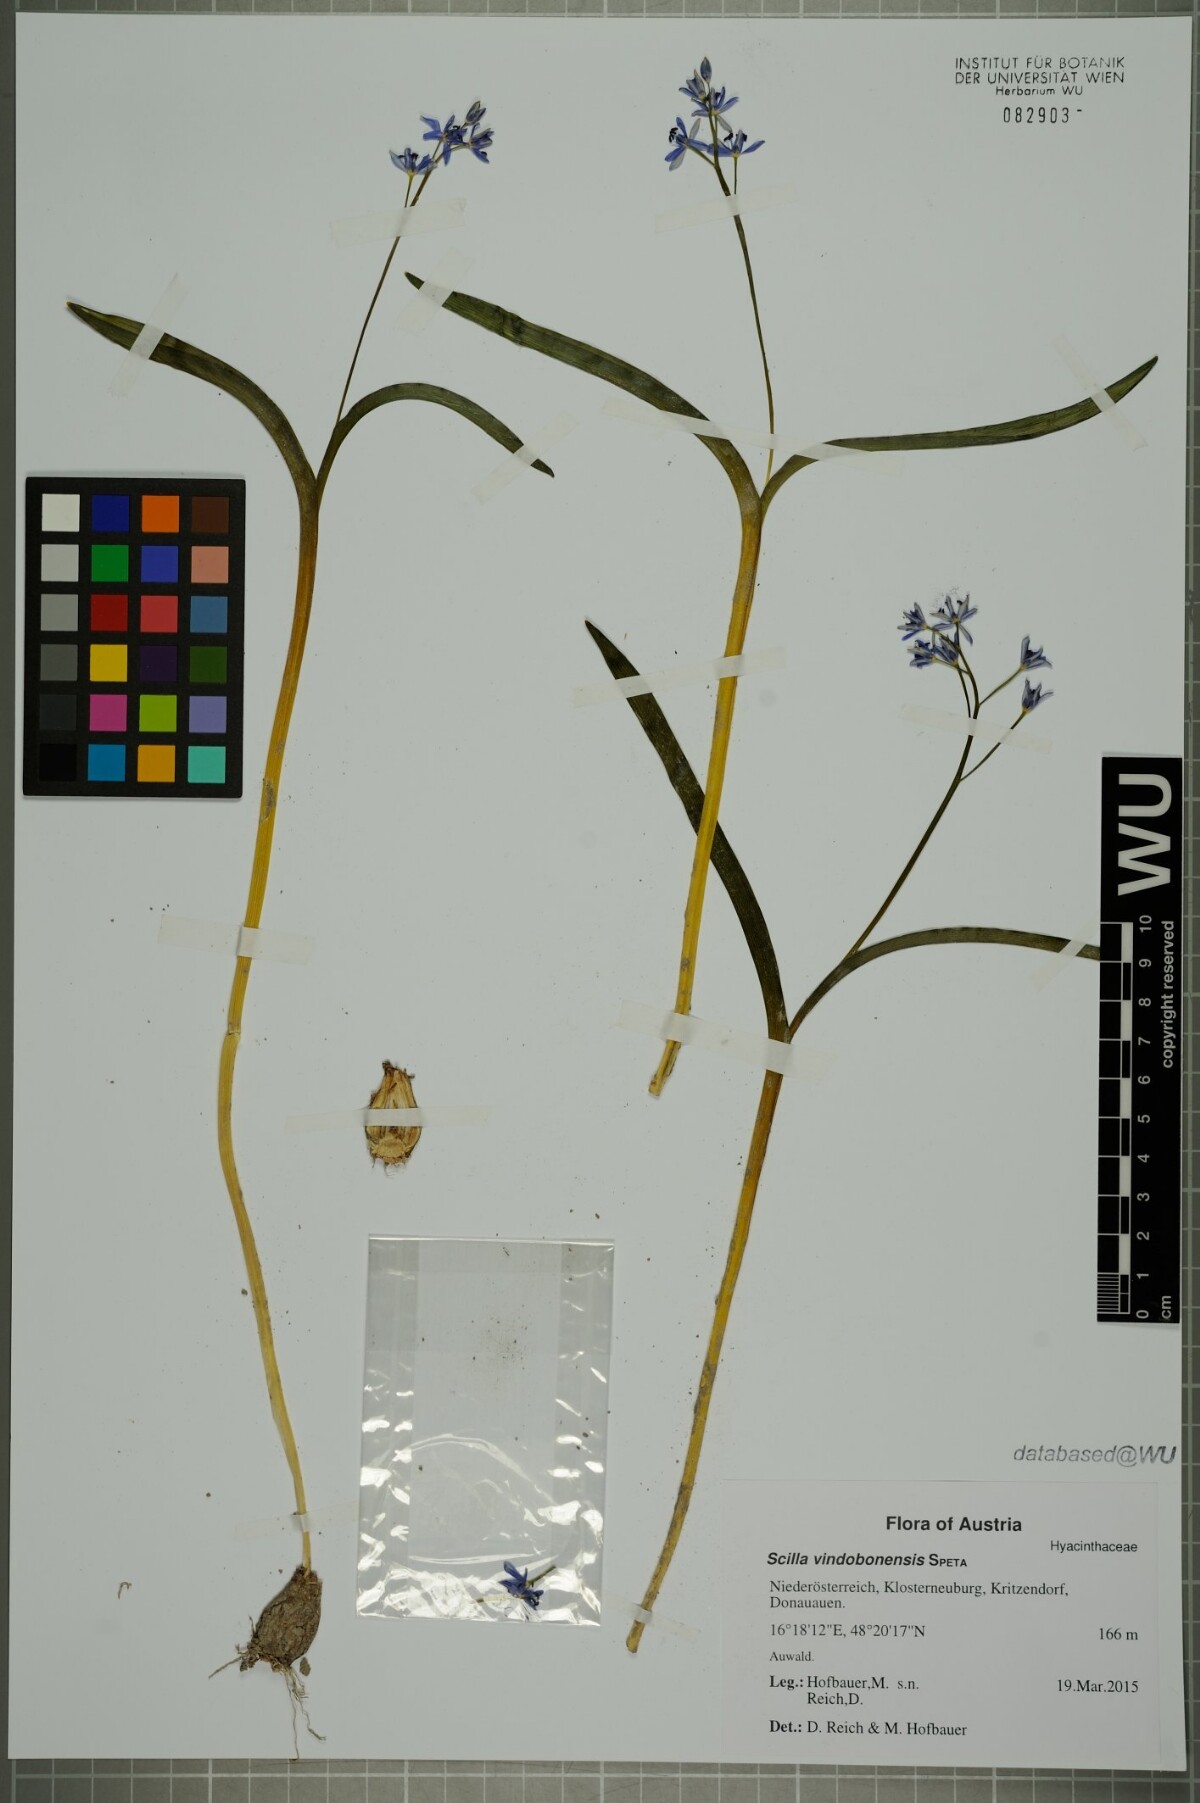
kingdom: Plantae
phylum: Tracheophyta
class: Liliopsida
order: Asparagales
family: Asparagaceae
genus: Scilla
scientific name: Scilla vindobonensis
